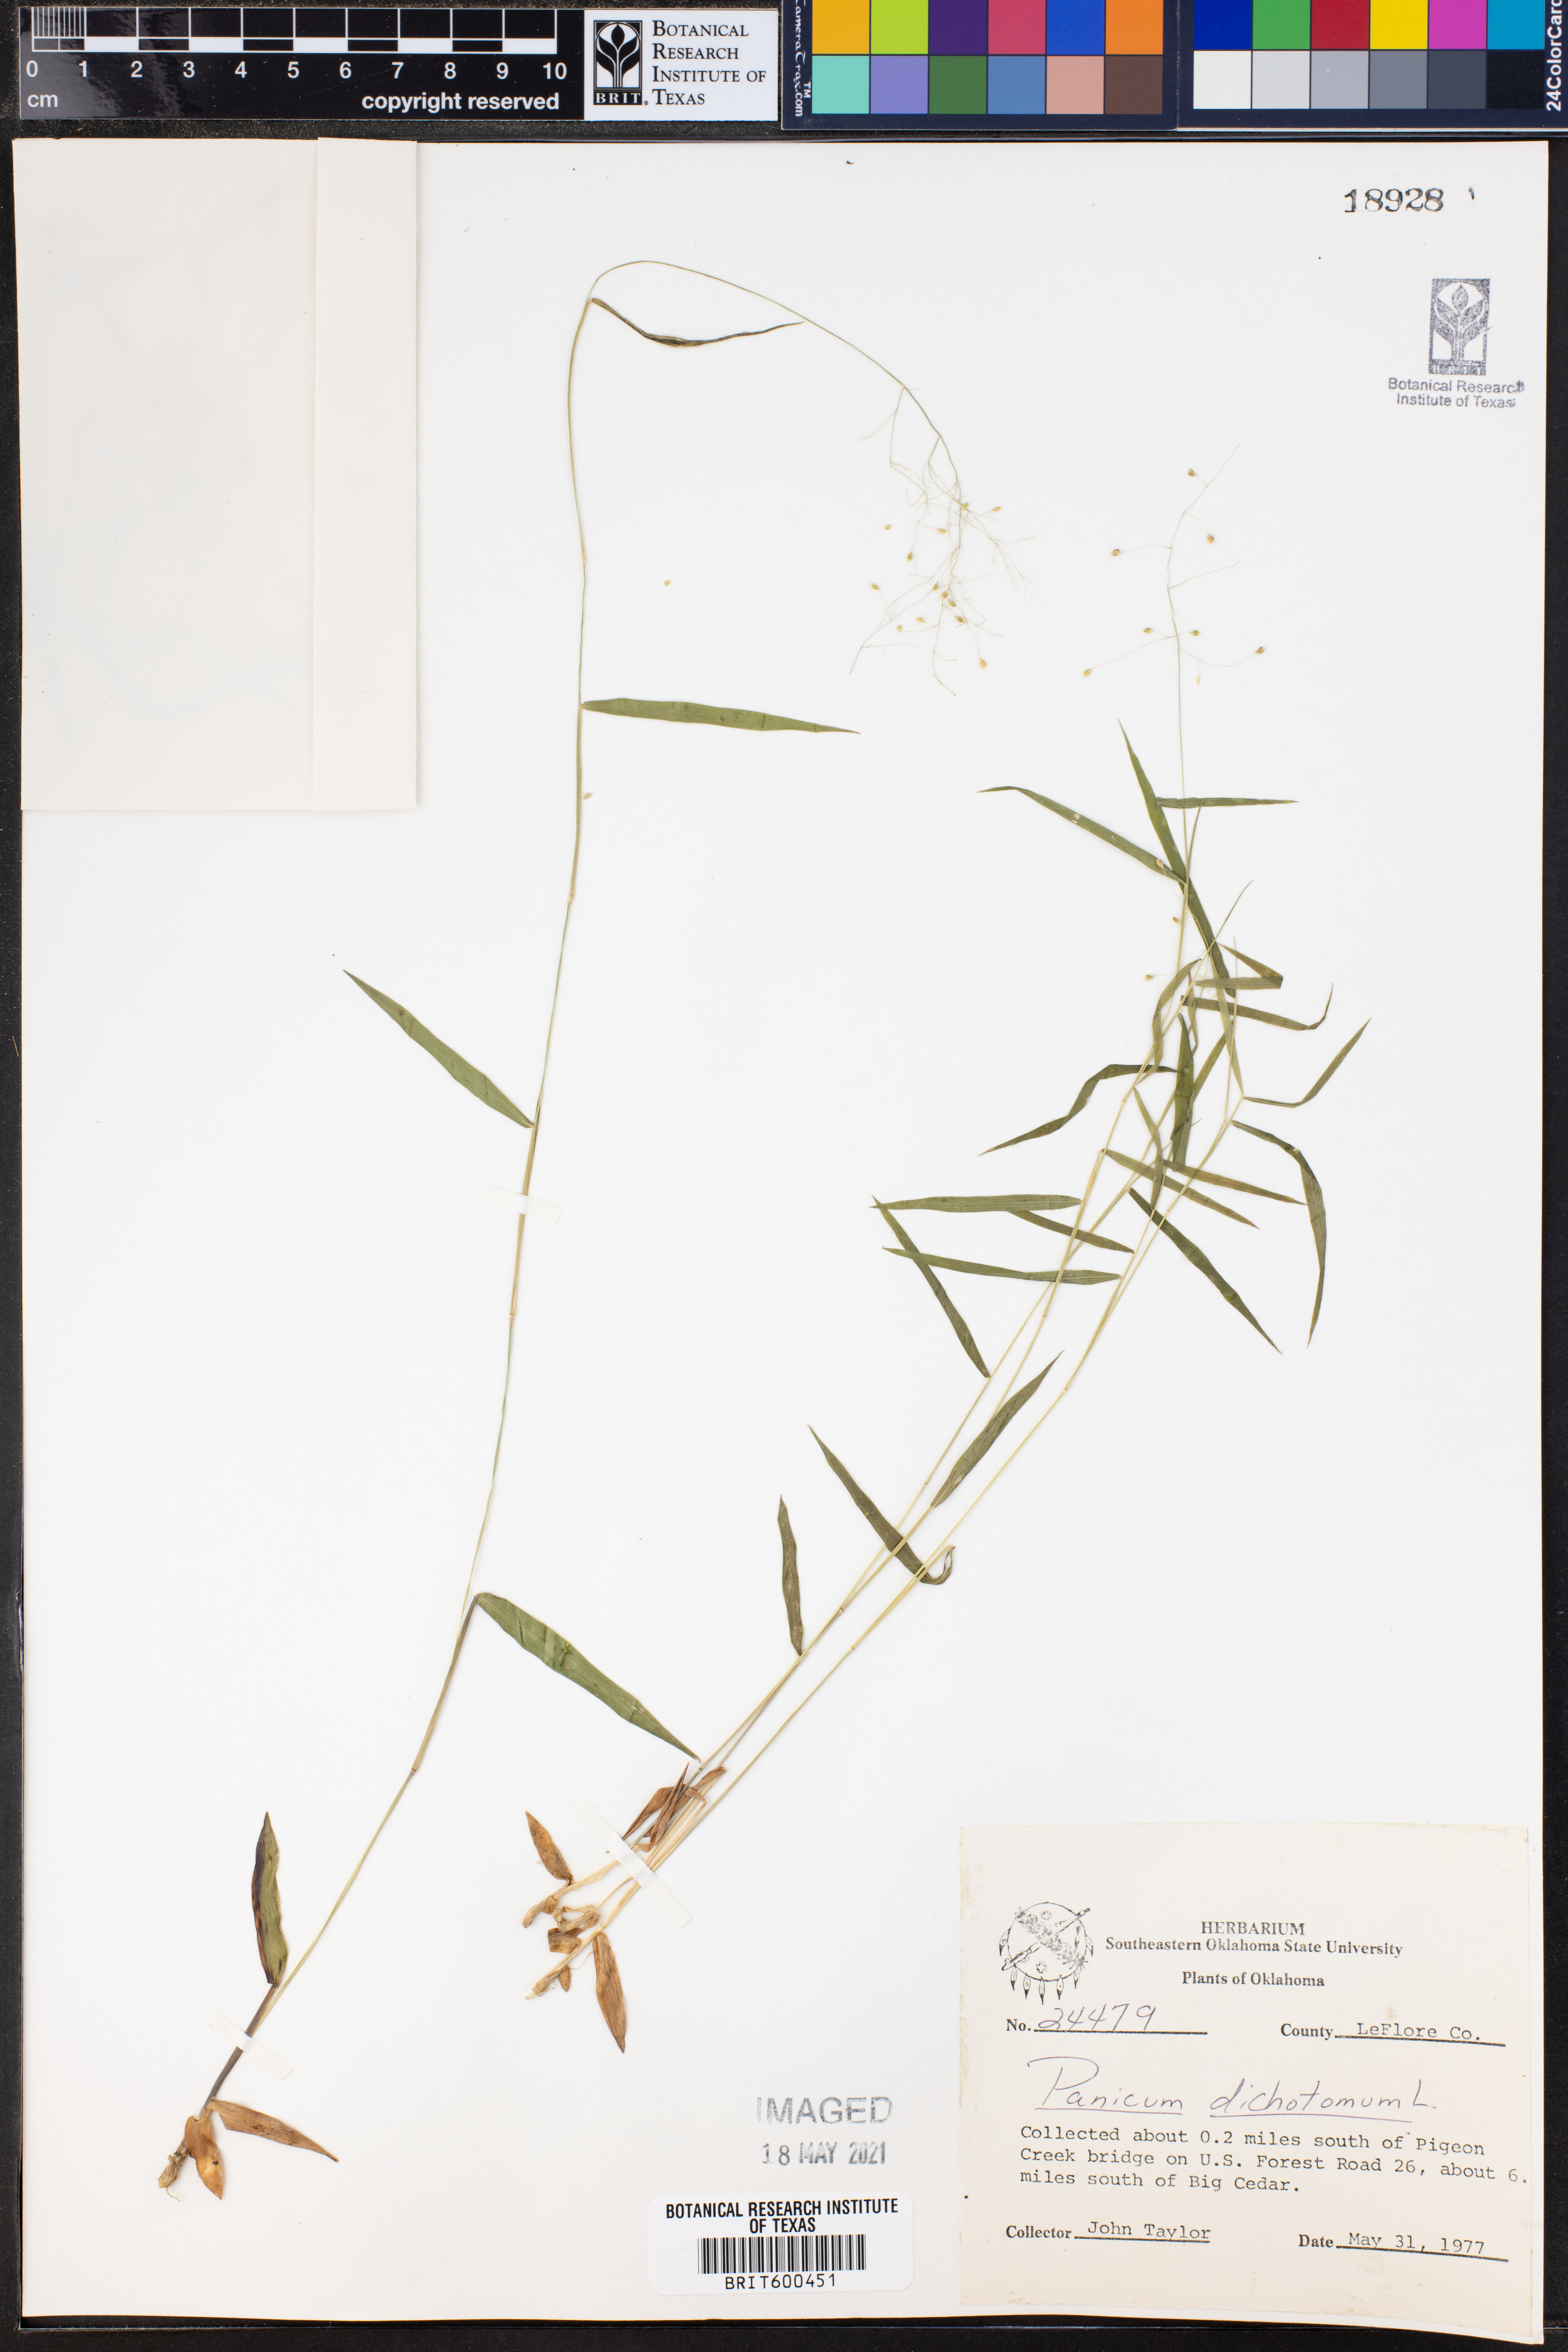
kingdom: Plantae
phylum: Tracheophyta
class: Liliopsida
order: Poales
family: Poaceae
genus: Dichanthelium
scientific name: Dichanthelium dichotomum
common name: Cypress panicgrass
